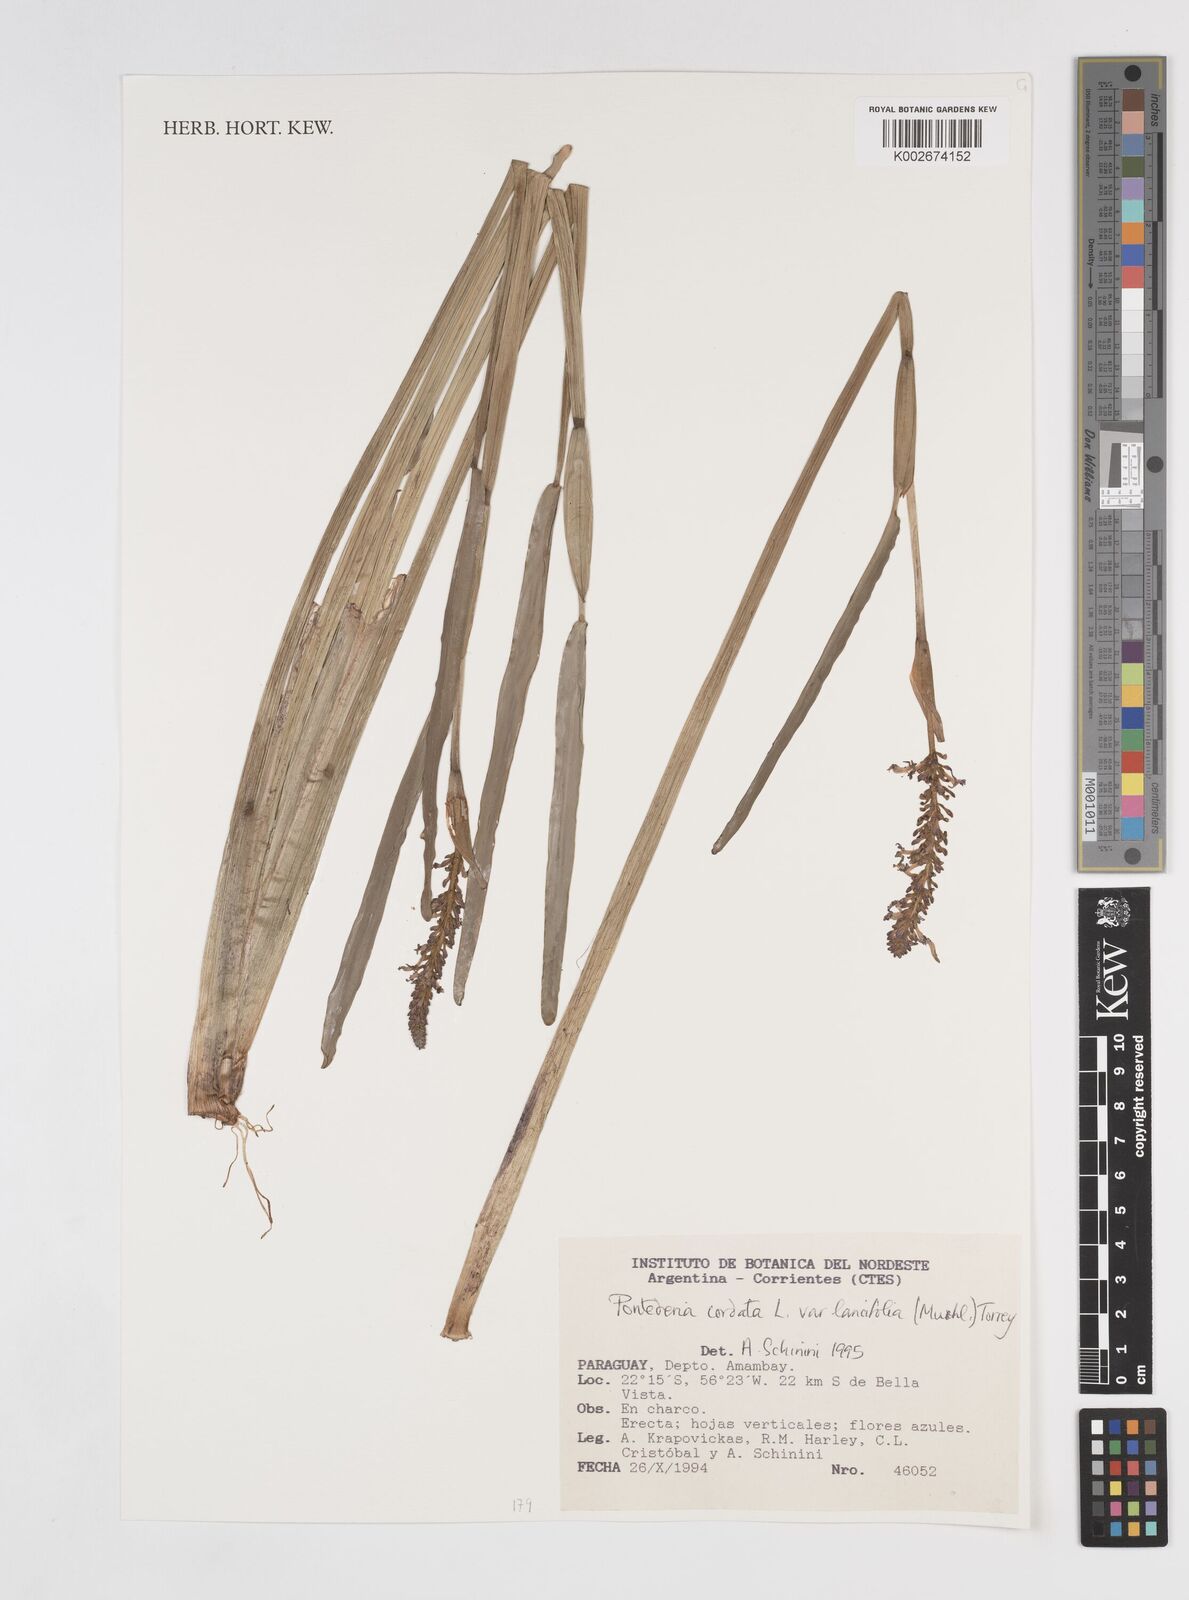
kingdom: Plantae
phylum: Tracheophyta
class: Liliopsida
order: Commelinales
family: Pontederiaceae
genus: Pontederia
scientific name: Pontederia
